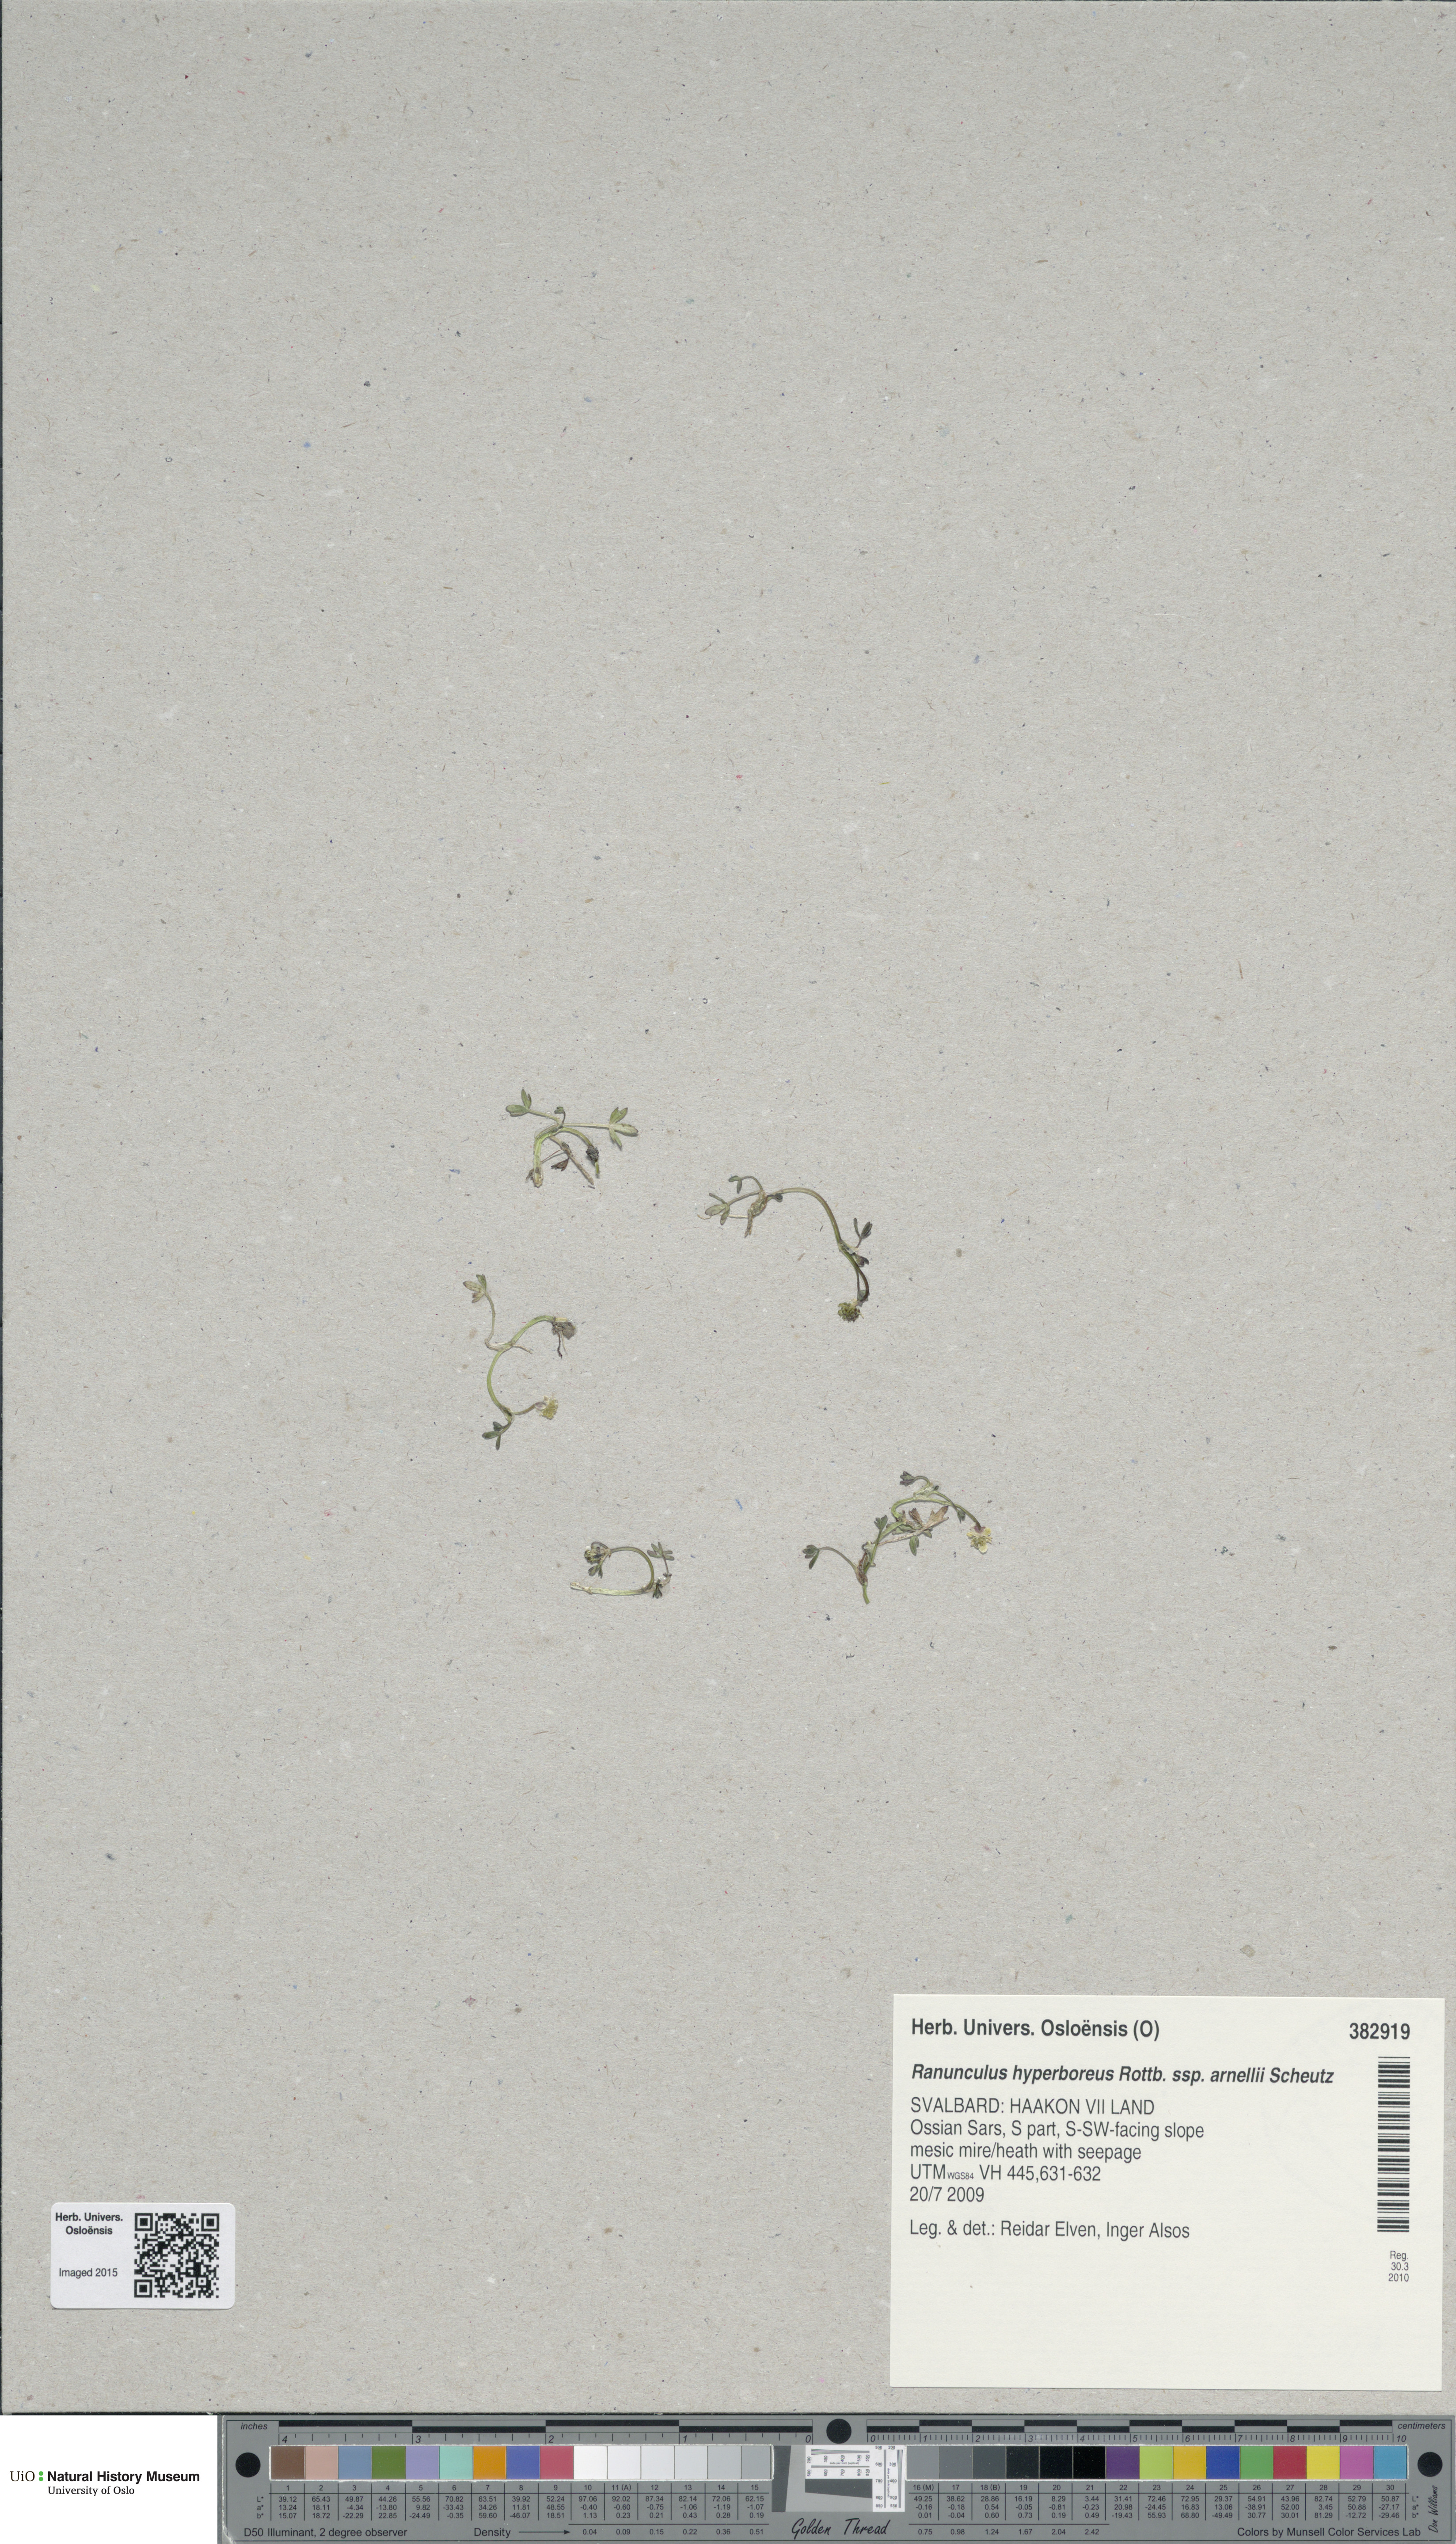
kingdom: Plantae
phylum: Tracheophyta
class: Magnoliopsida
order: Ranunculales
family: Ranunculaceae
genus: Ranunculus
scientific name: Ranunculus hyperboreus
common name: Arctic buttercup
